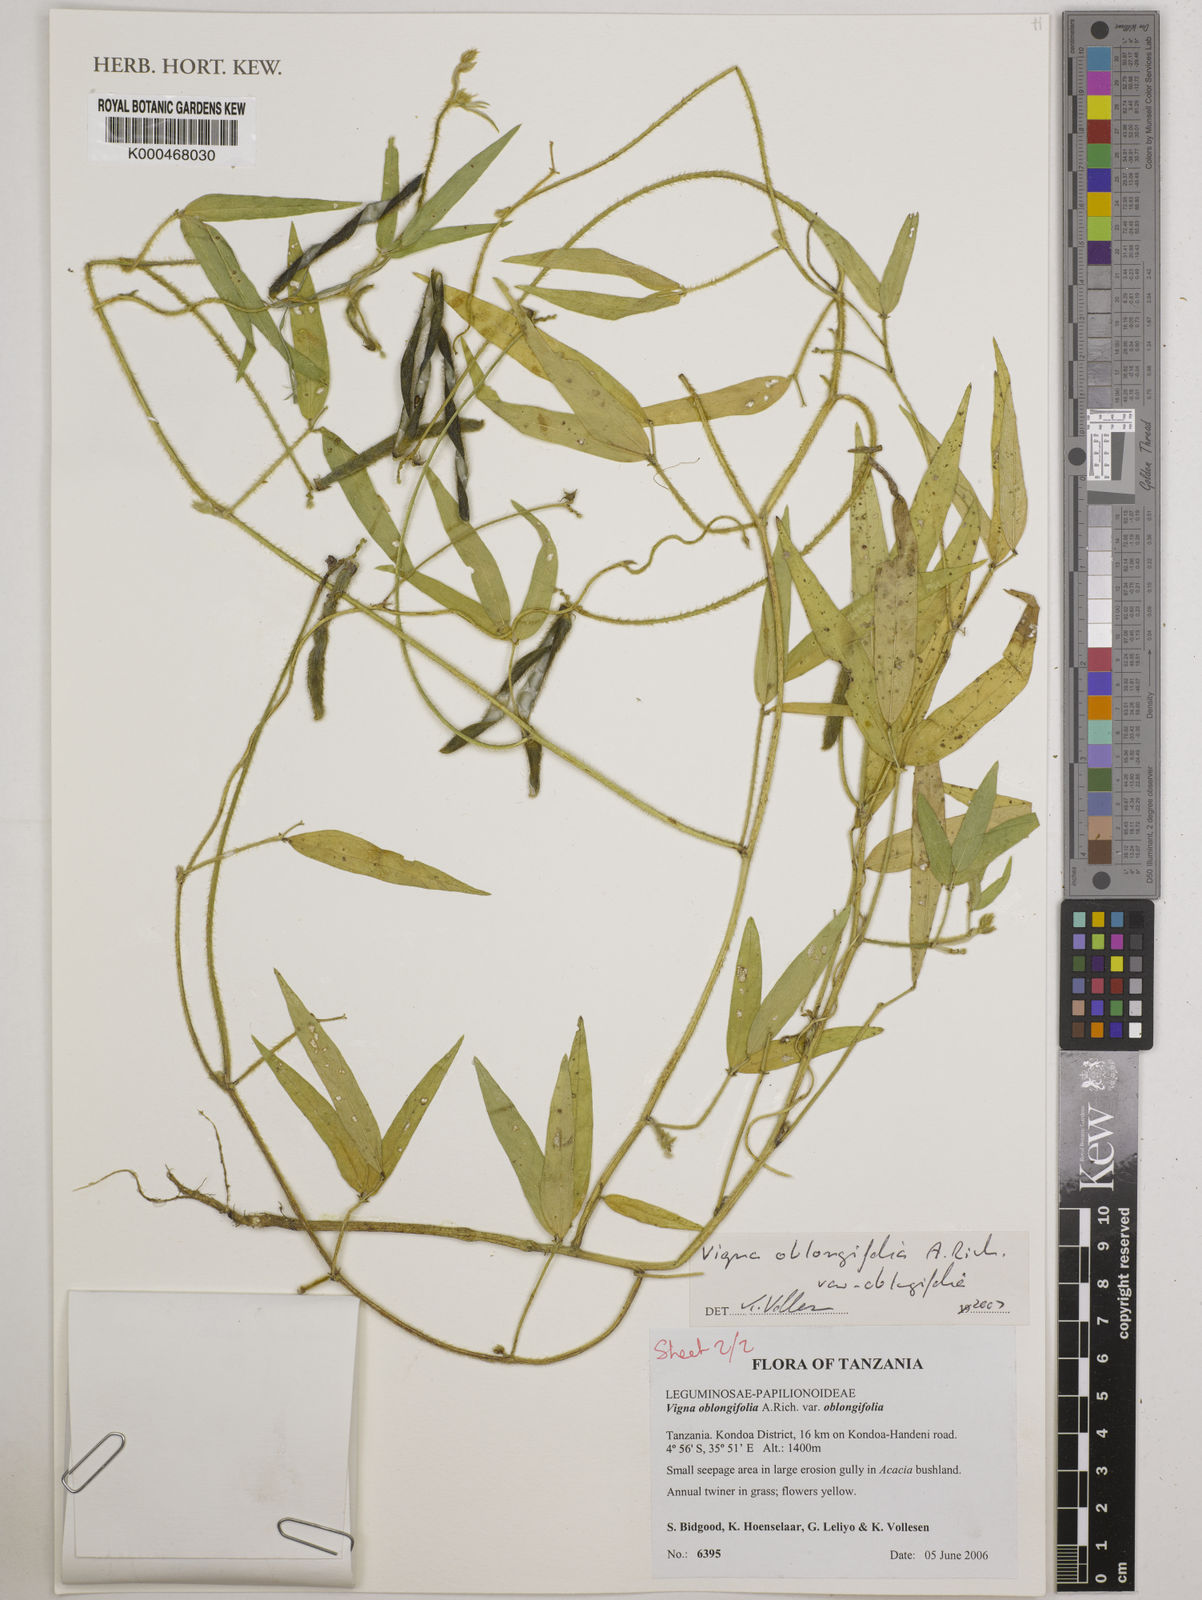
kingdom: Plantae
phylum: Tracheophyta
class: Magnoliopsida
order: Fabales
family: Fabaceae
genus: Vigna
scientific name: Vigna oblongifolia
